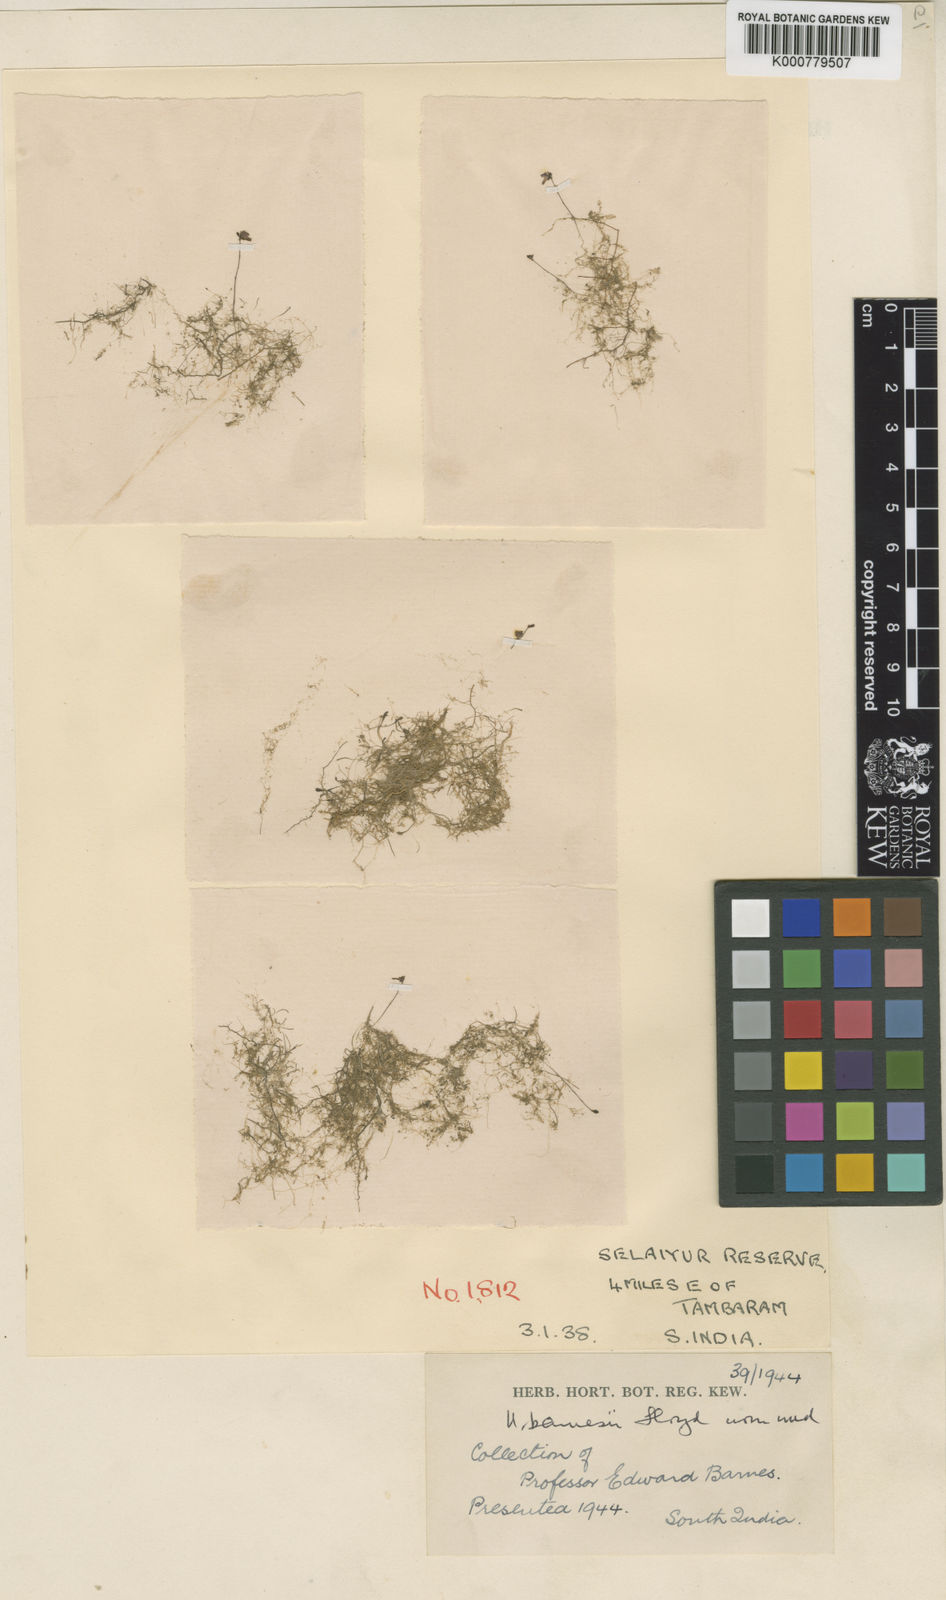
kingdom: Plantae
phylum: Tracheophyta
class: Magnoliopsida
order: Lamiales
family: Lentibulariaceae
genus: Utricularia
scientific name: Utricularia minutissima
